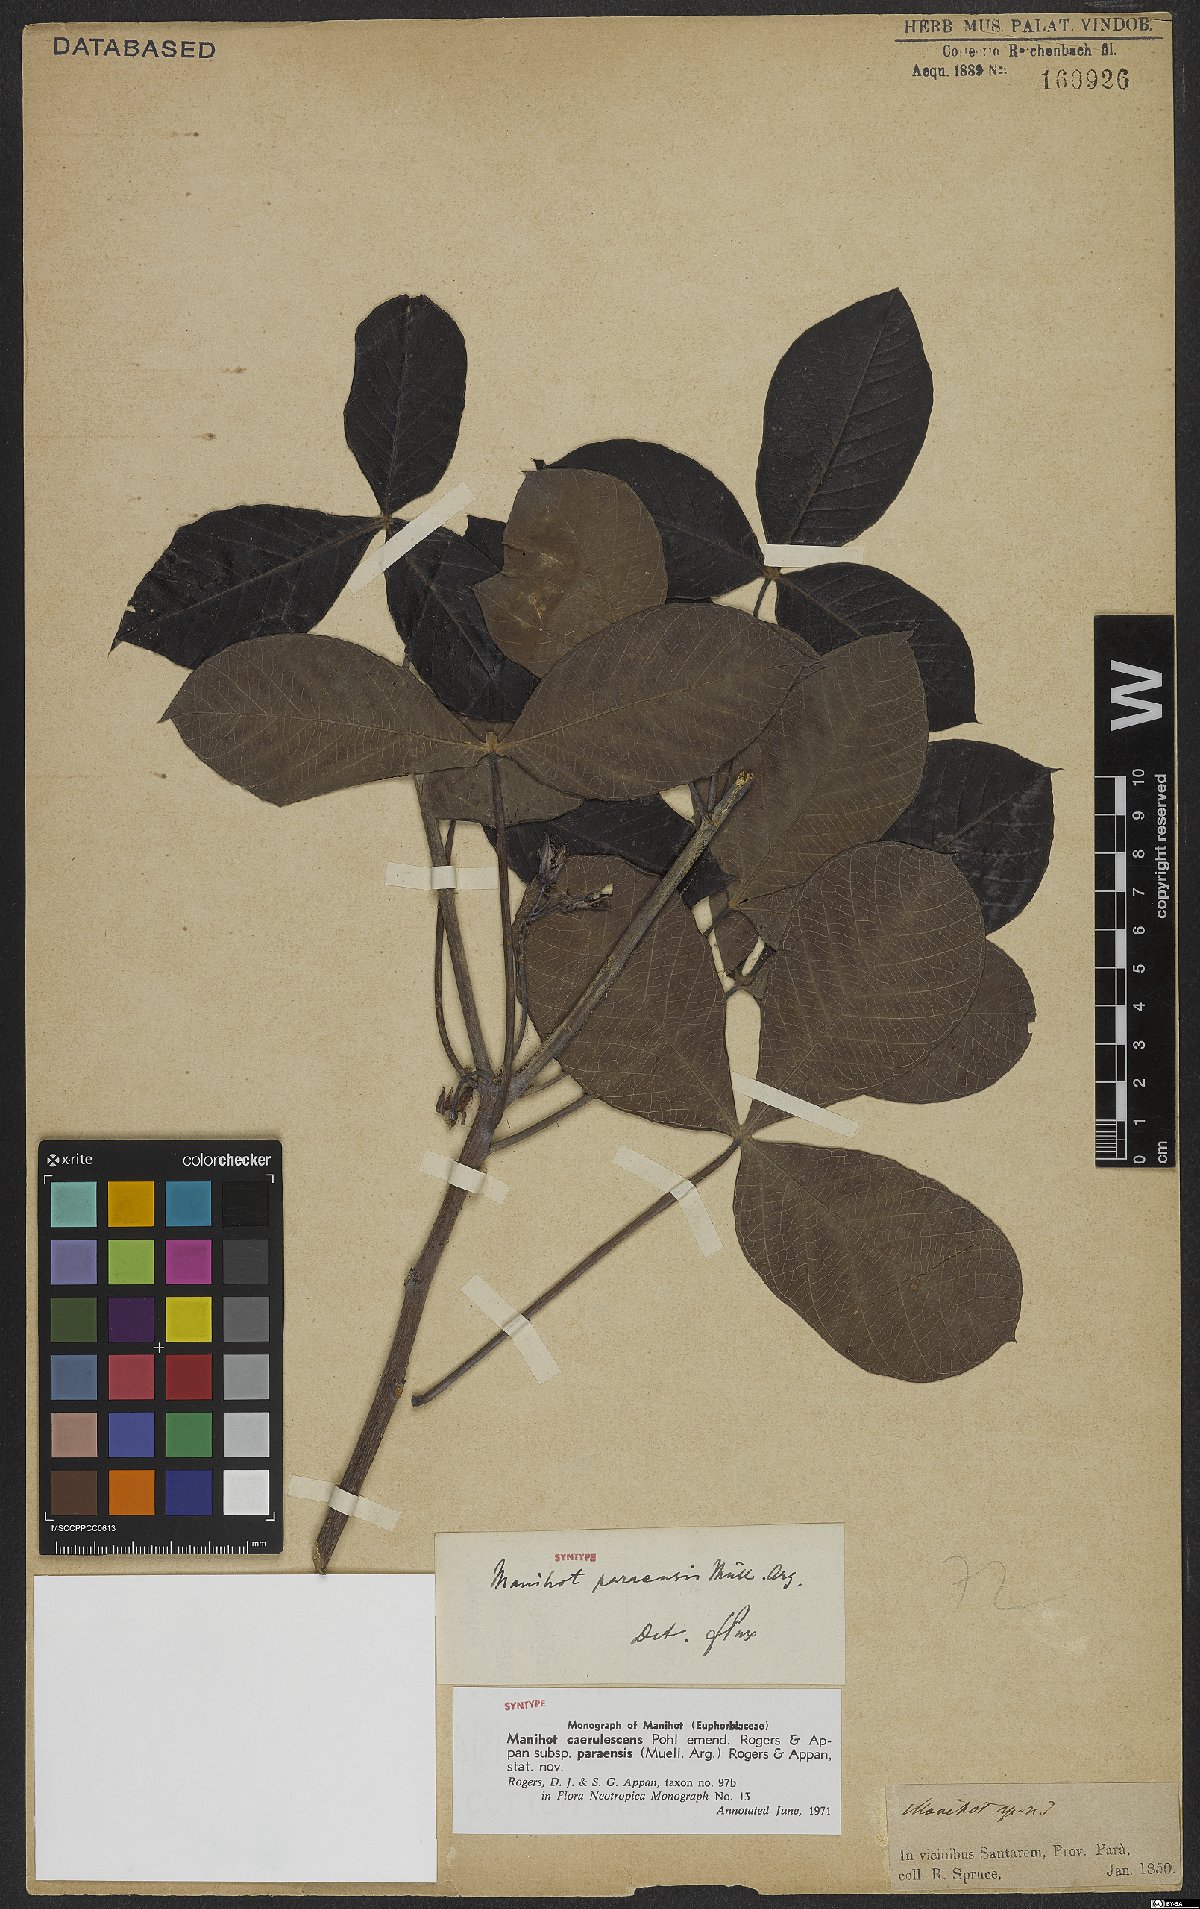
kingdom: Plantae
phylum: Tracheophyta
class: Magnoliopsida
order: Malpighiales
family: Euphorbiaceae
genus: Manihot
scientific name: Manihot caerulescens
